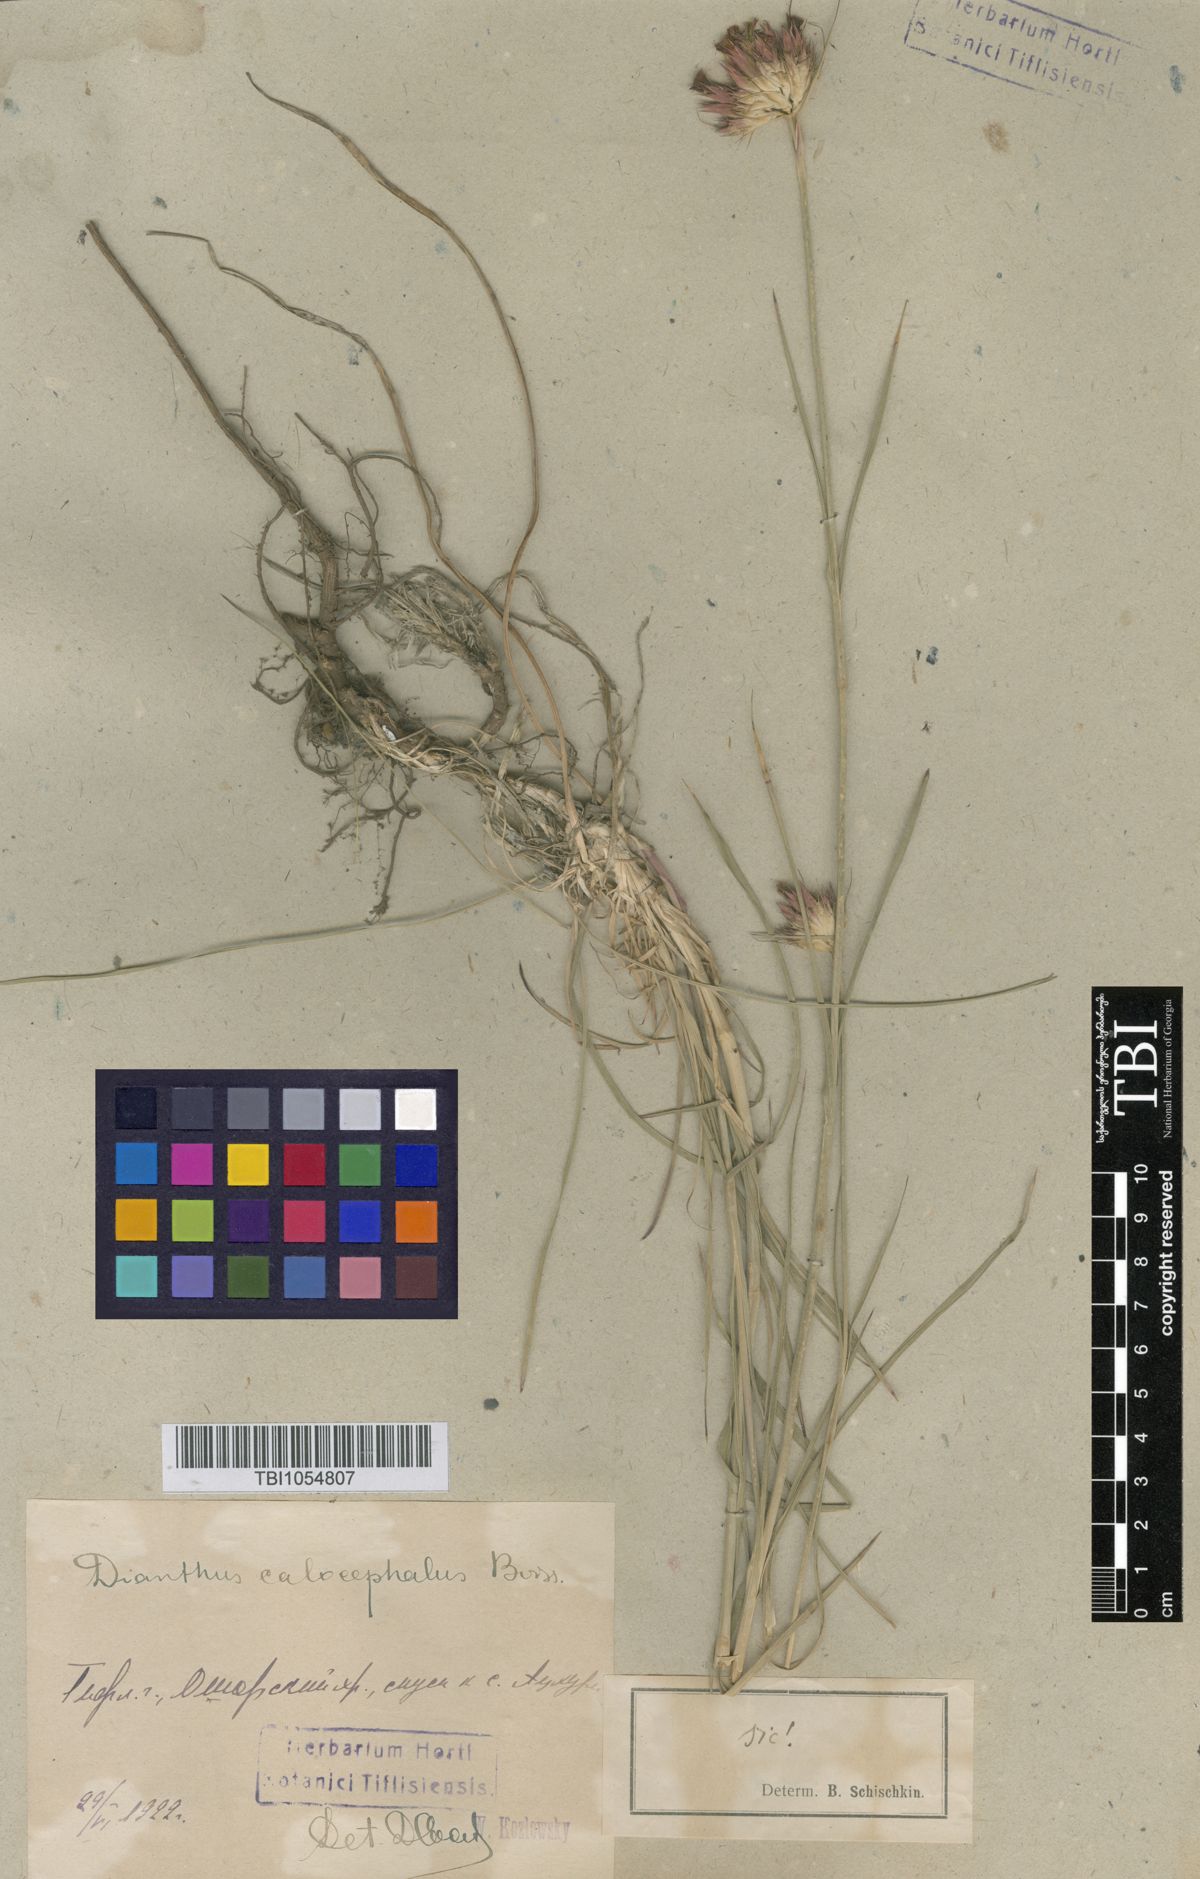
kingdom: Plantae
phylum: Tracheophyta
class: Magnoliopsida
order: Caryophyllales
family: Caryophyllaceae
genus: Dianthus
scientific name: Dianthus cruentus
